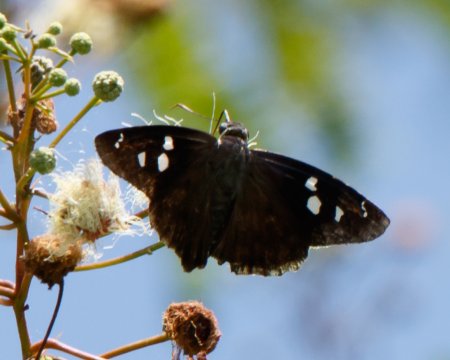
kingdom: Animalia
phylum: Arthropoda
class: Insecta
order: Lepidoptera
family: Hesperiidae
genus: Polygonus
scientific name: Polygonus leo
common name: Hammock Skipper
